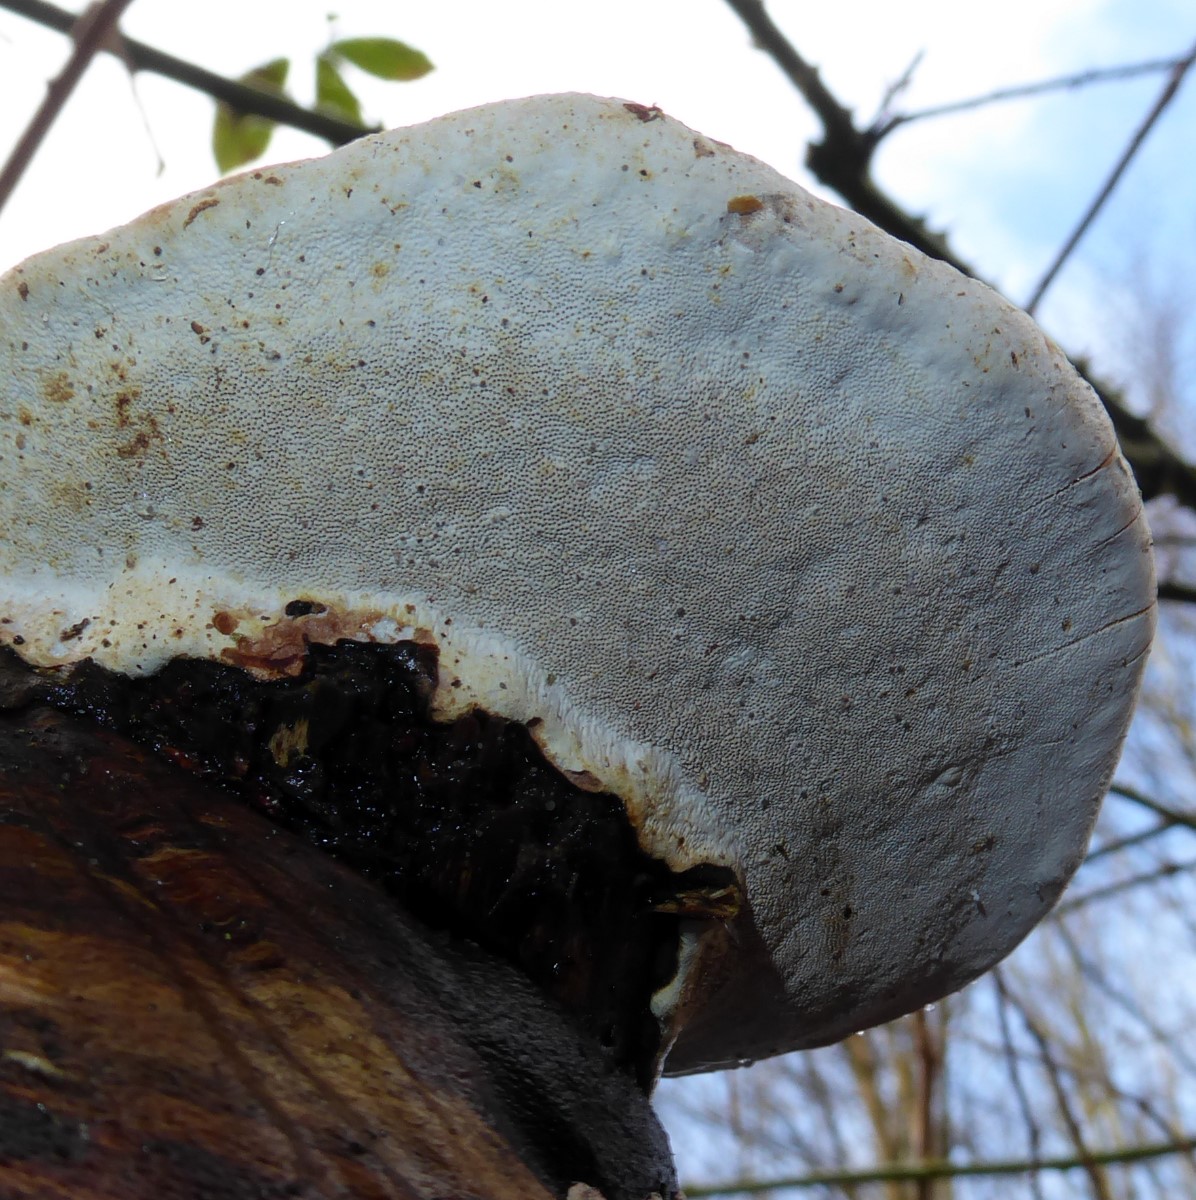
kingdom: Fungi
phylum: Basidiomycota
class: Agaricomycetes
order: Polyporales
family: Polyporaceae
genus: Ganoderma
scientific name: Ganoderma pfeifferi
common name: kobberrød lakporesvamp
